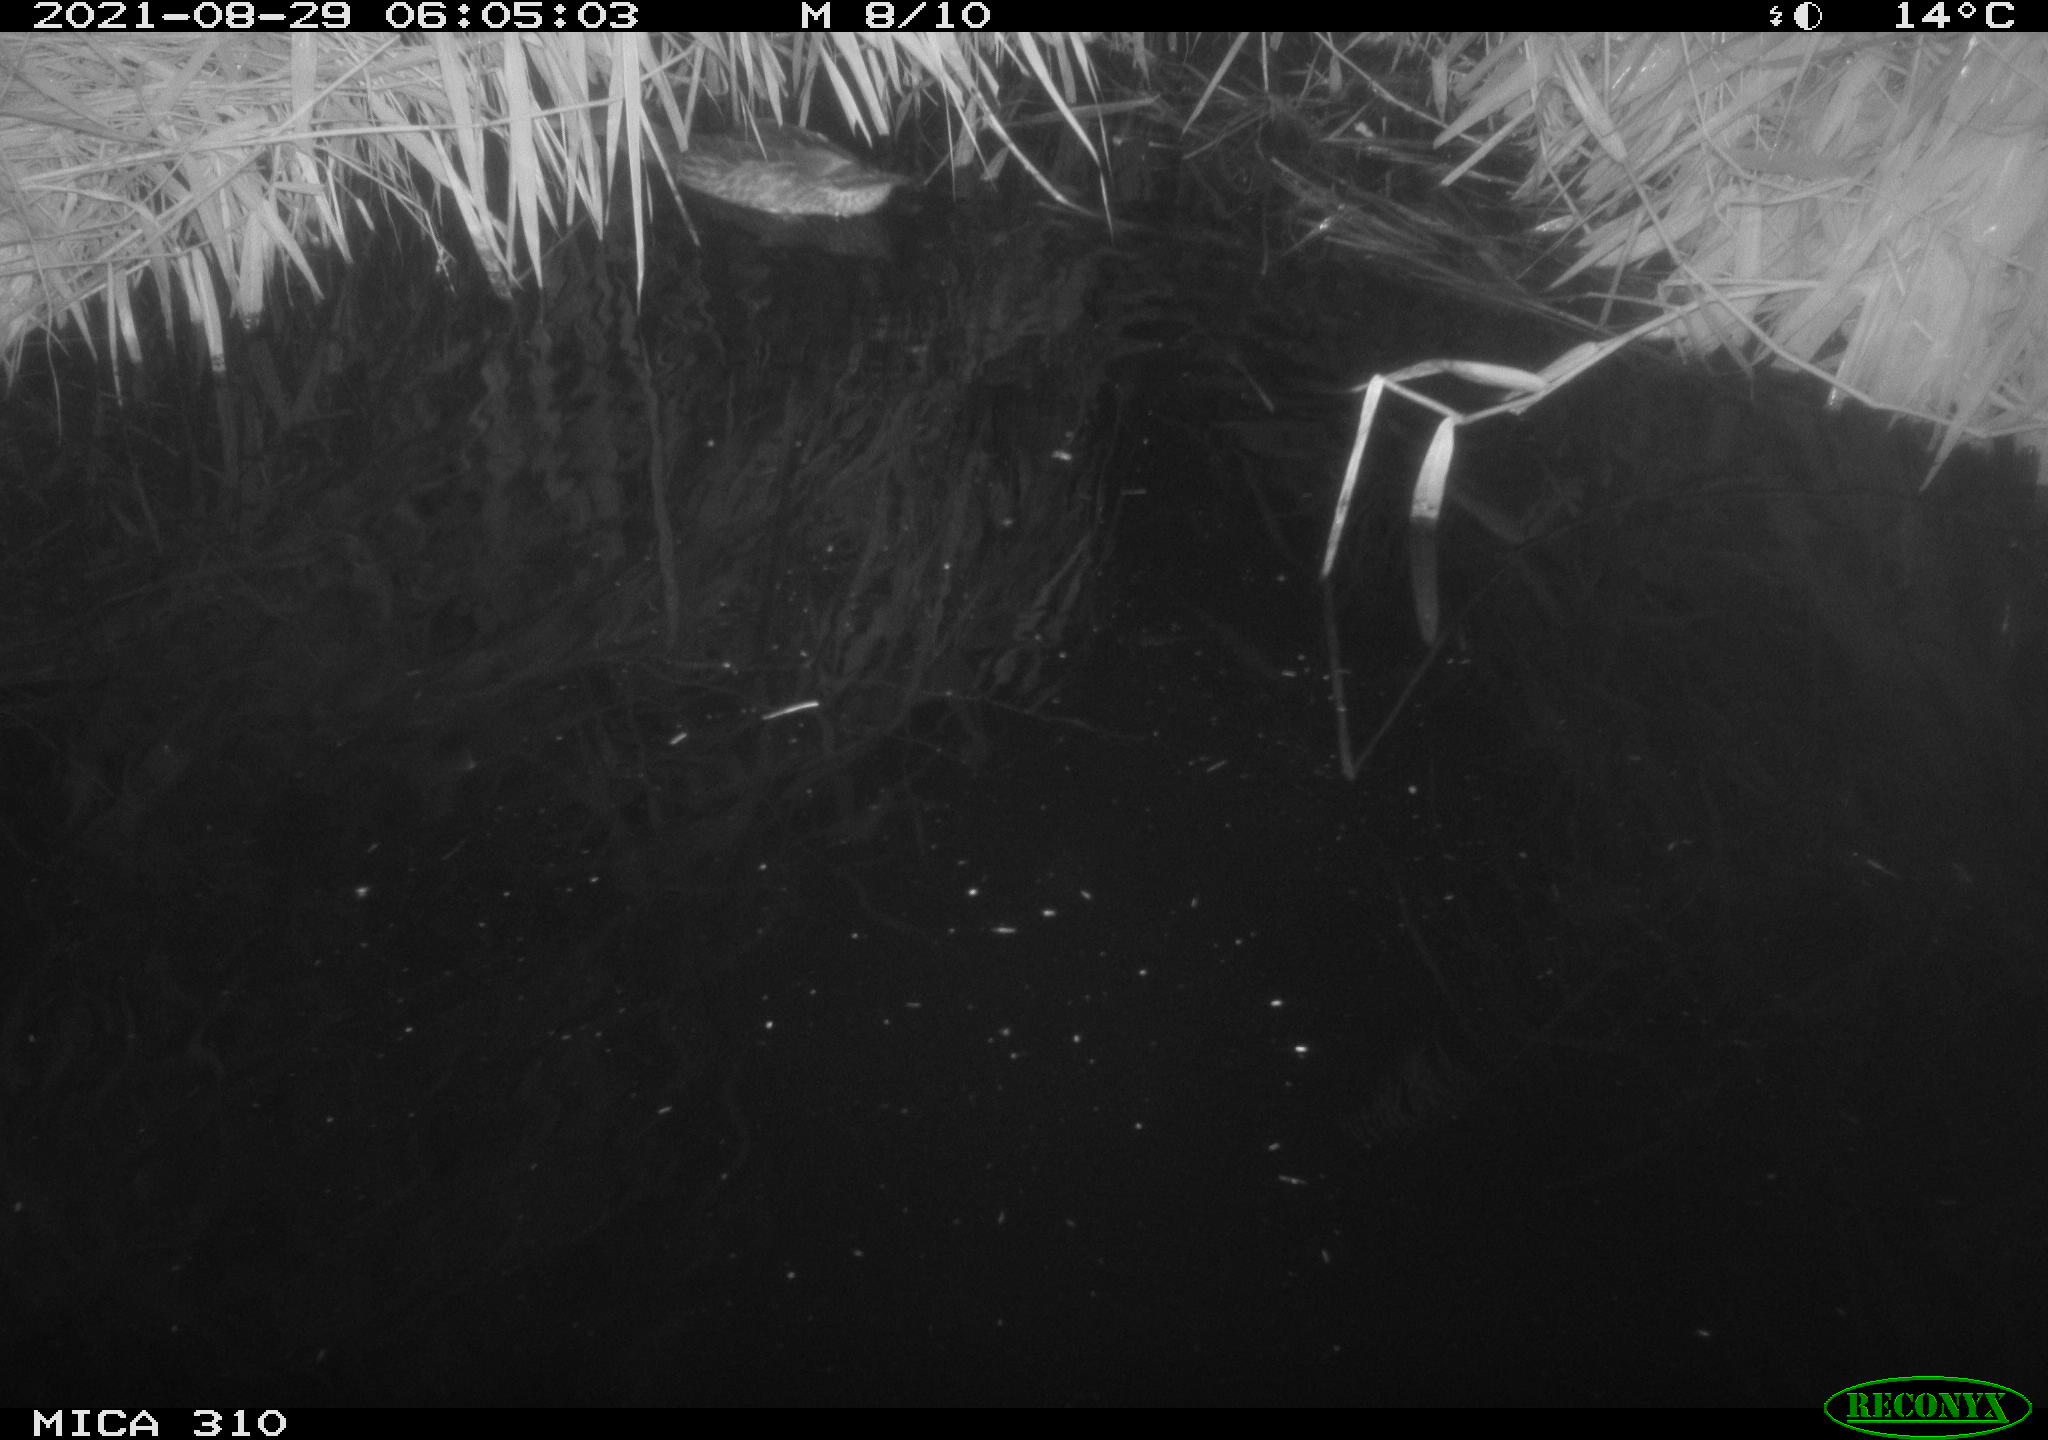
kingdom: Animalia
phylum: Chordata
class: Aves
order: Anseriformes
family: Anatidae
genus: Anas
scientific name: Anas platyrhynchos
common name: Mallard
